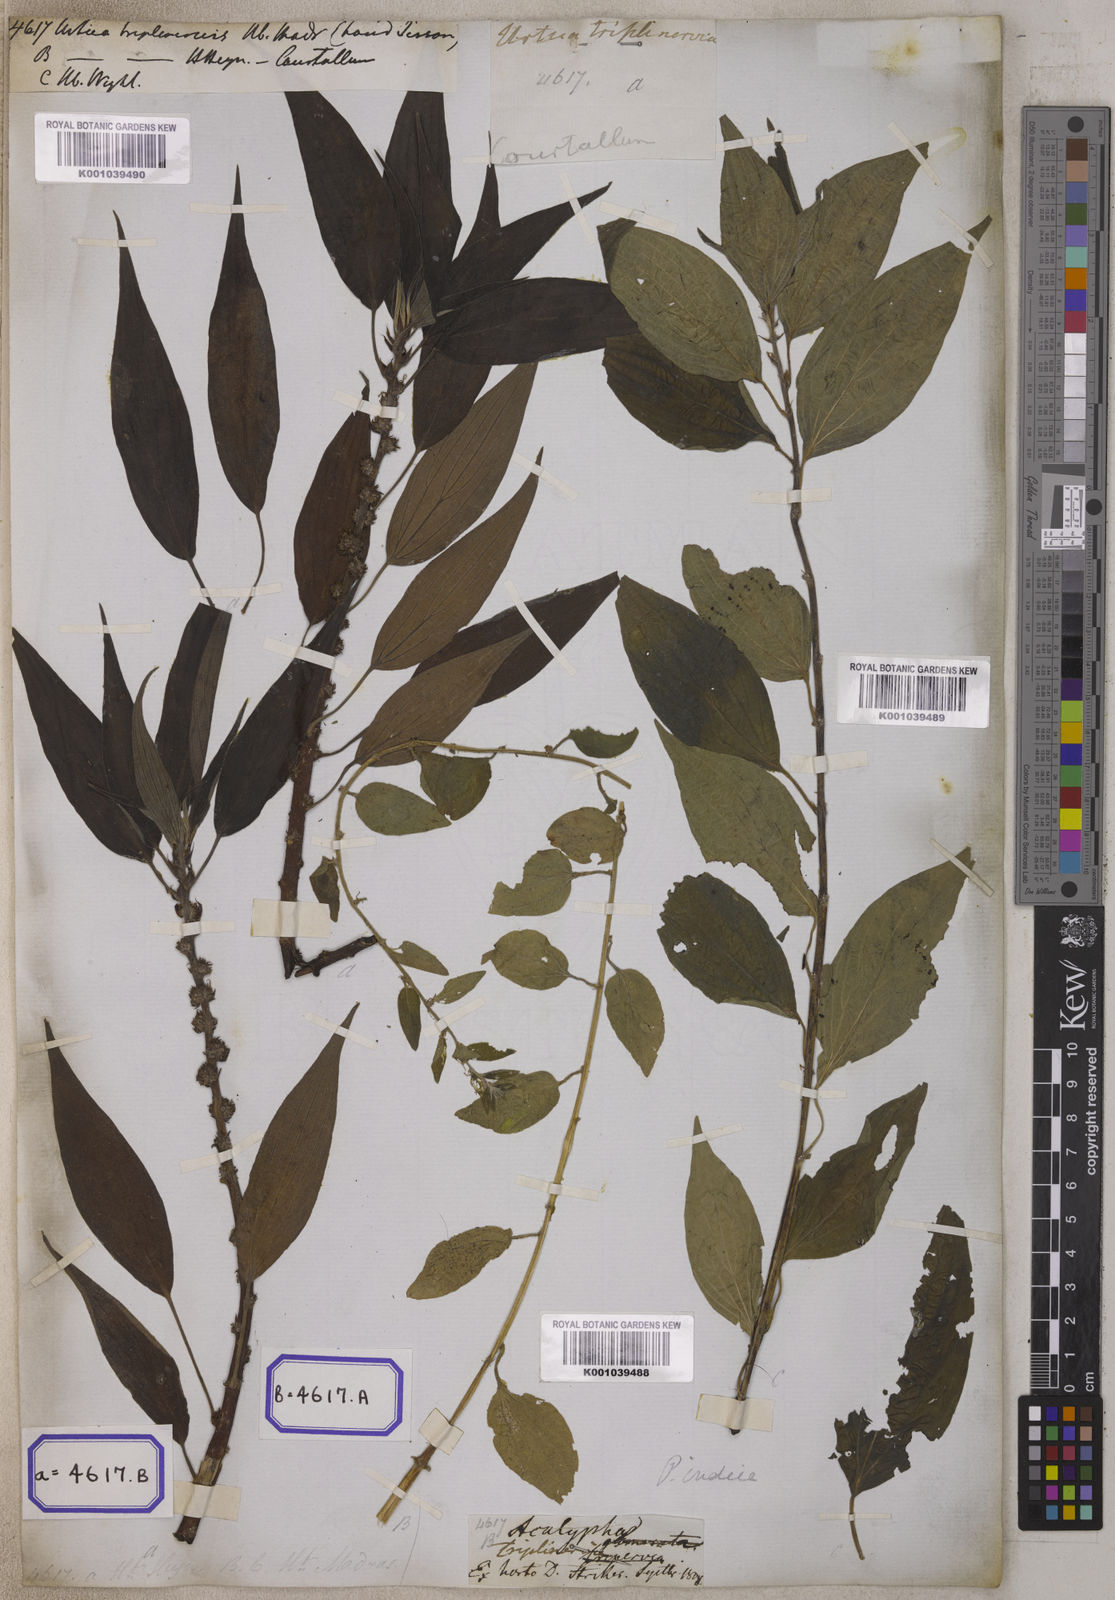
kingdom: Plantae
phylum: Tracheophyta
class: Magnoliopsida
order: Rosales
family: Urticaceae
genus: Urtica
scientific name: Urtica
